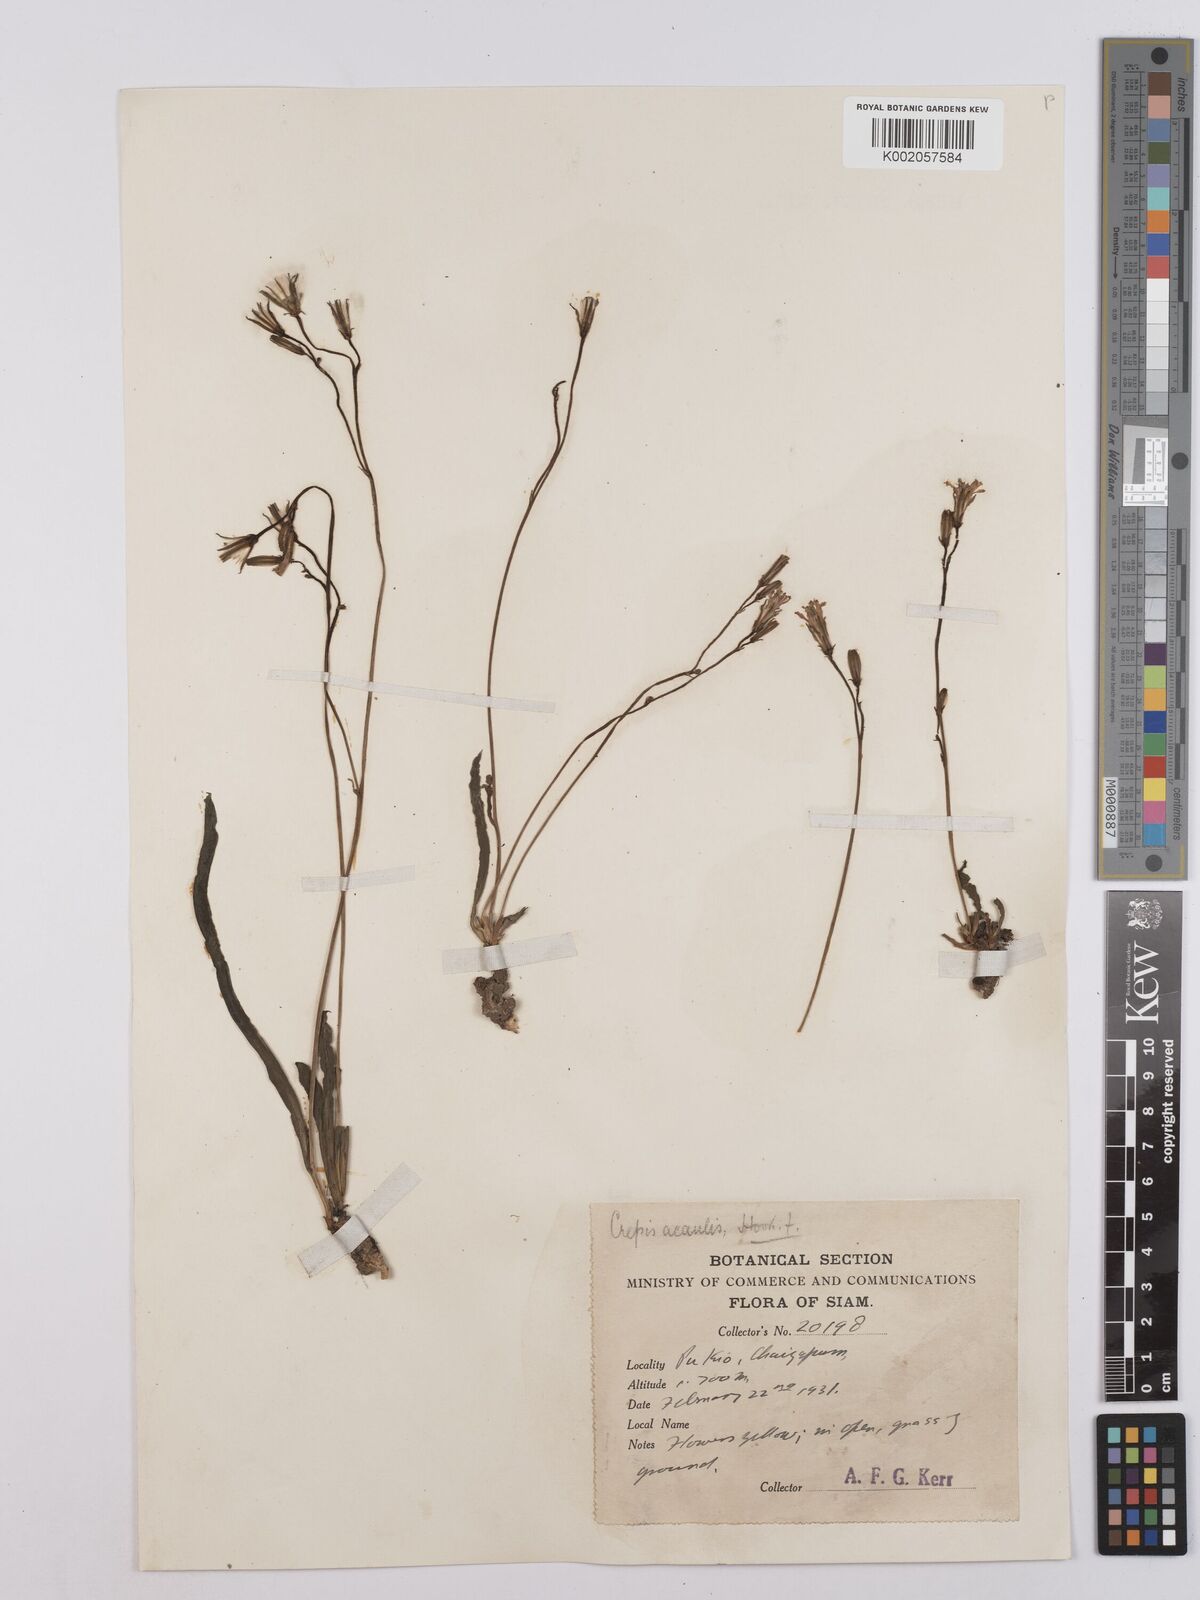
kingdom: Plantae
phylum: Tracheophyta
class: Magnoliopsida
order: Asterales
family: Asteraceae
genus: Launaea
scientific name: Launaea acaulis
